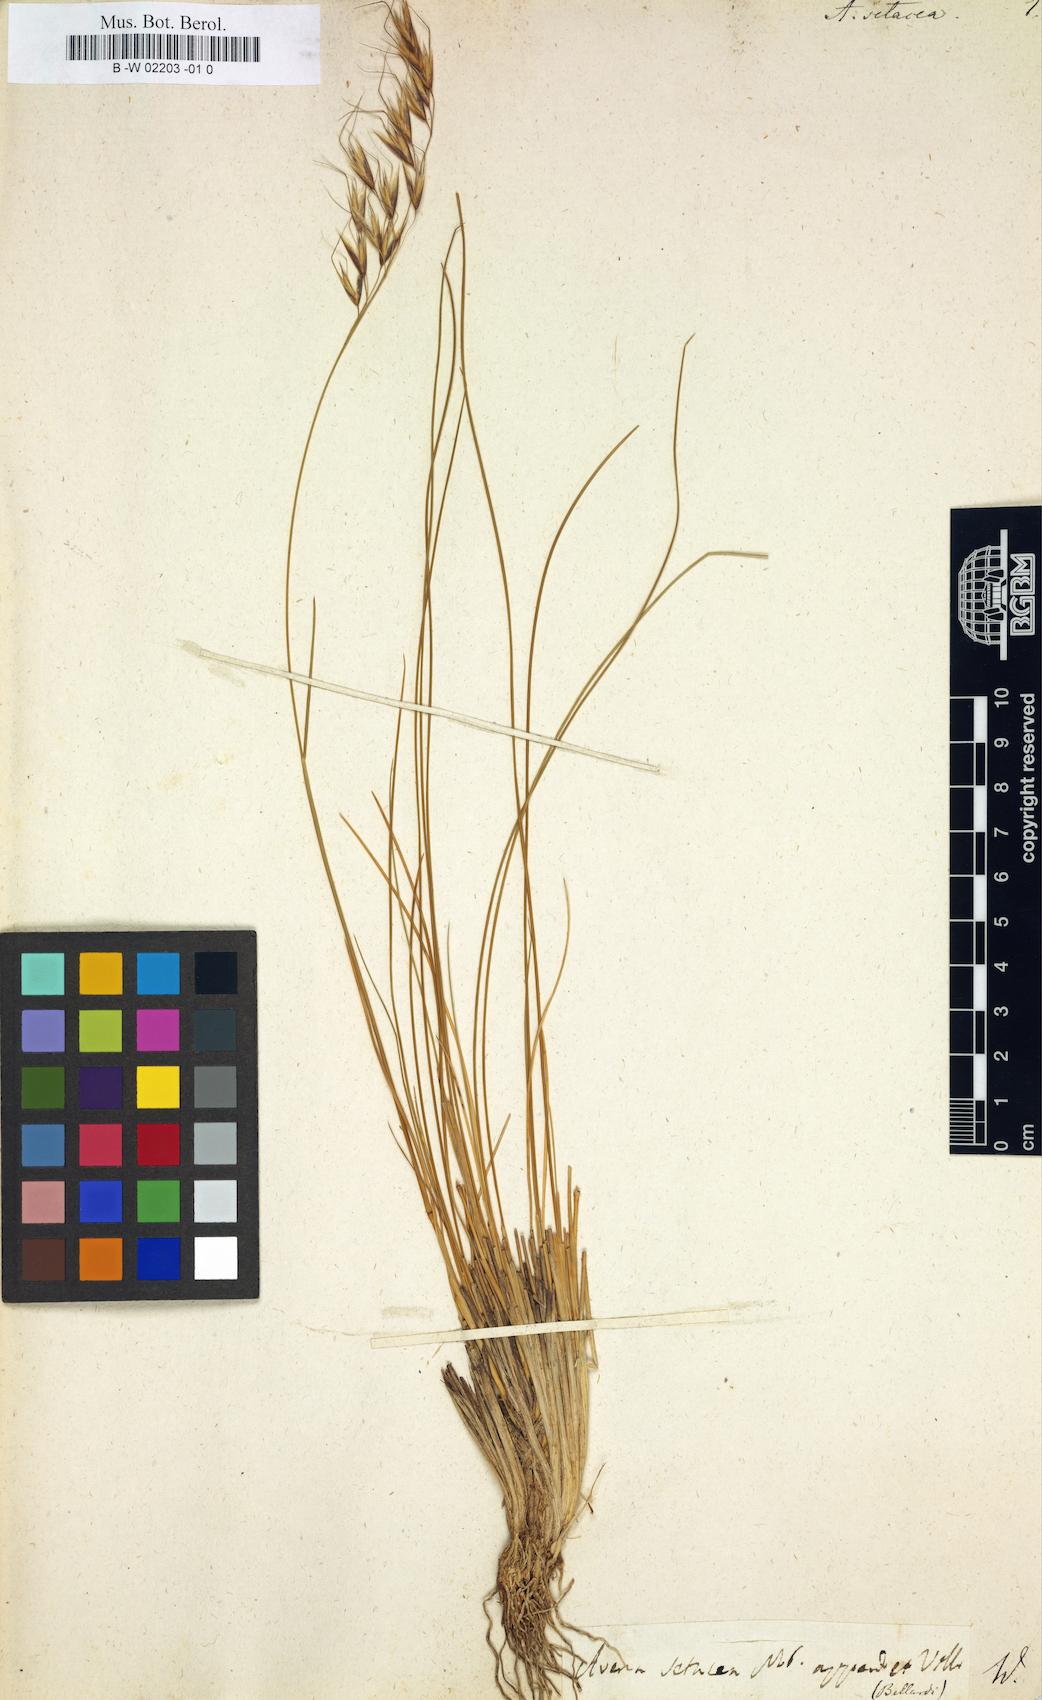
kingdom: Plantae
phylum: Tracheophyta
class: Liliopsida
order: Poales
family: Poaceae
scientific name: Poaceae
